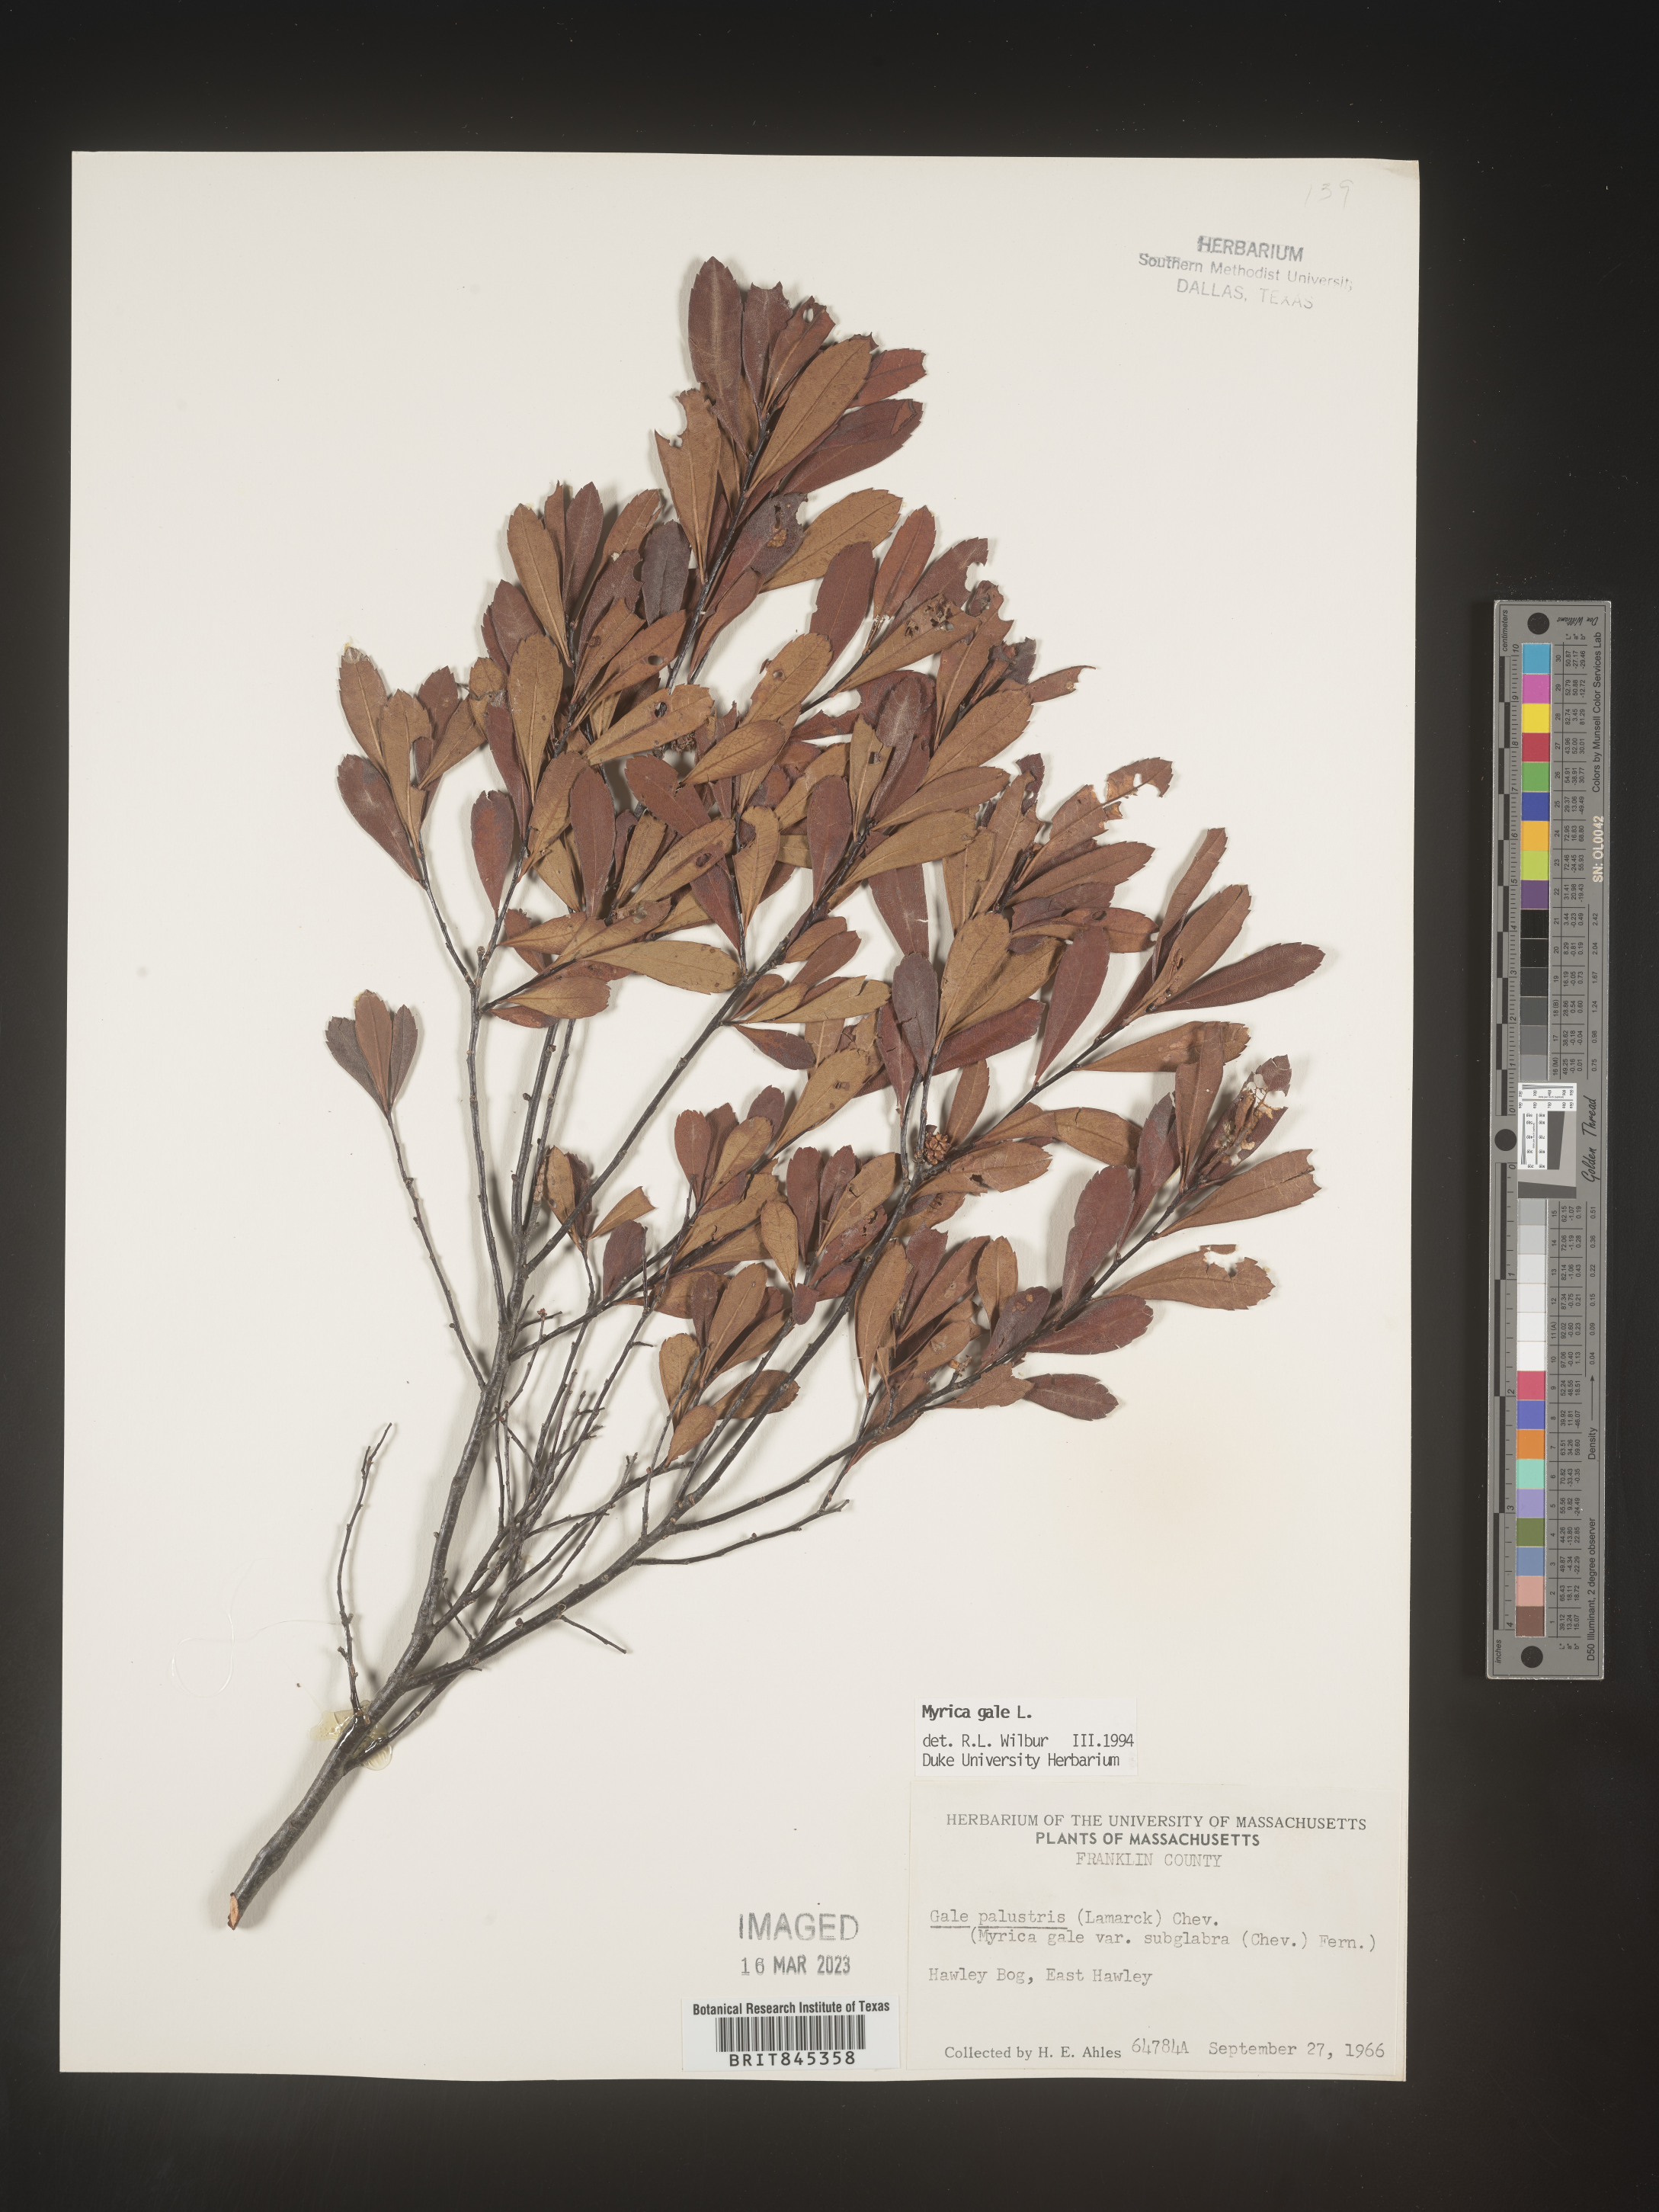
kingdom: Plantae
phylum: Tracheophyta
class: Magnoliopsida
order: Fagales
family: Myricaceae
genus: Myrica
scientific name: Myrica gale
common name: Sweet gale
